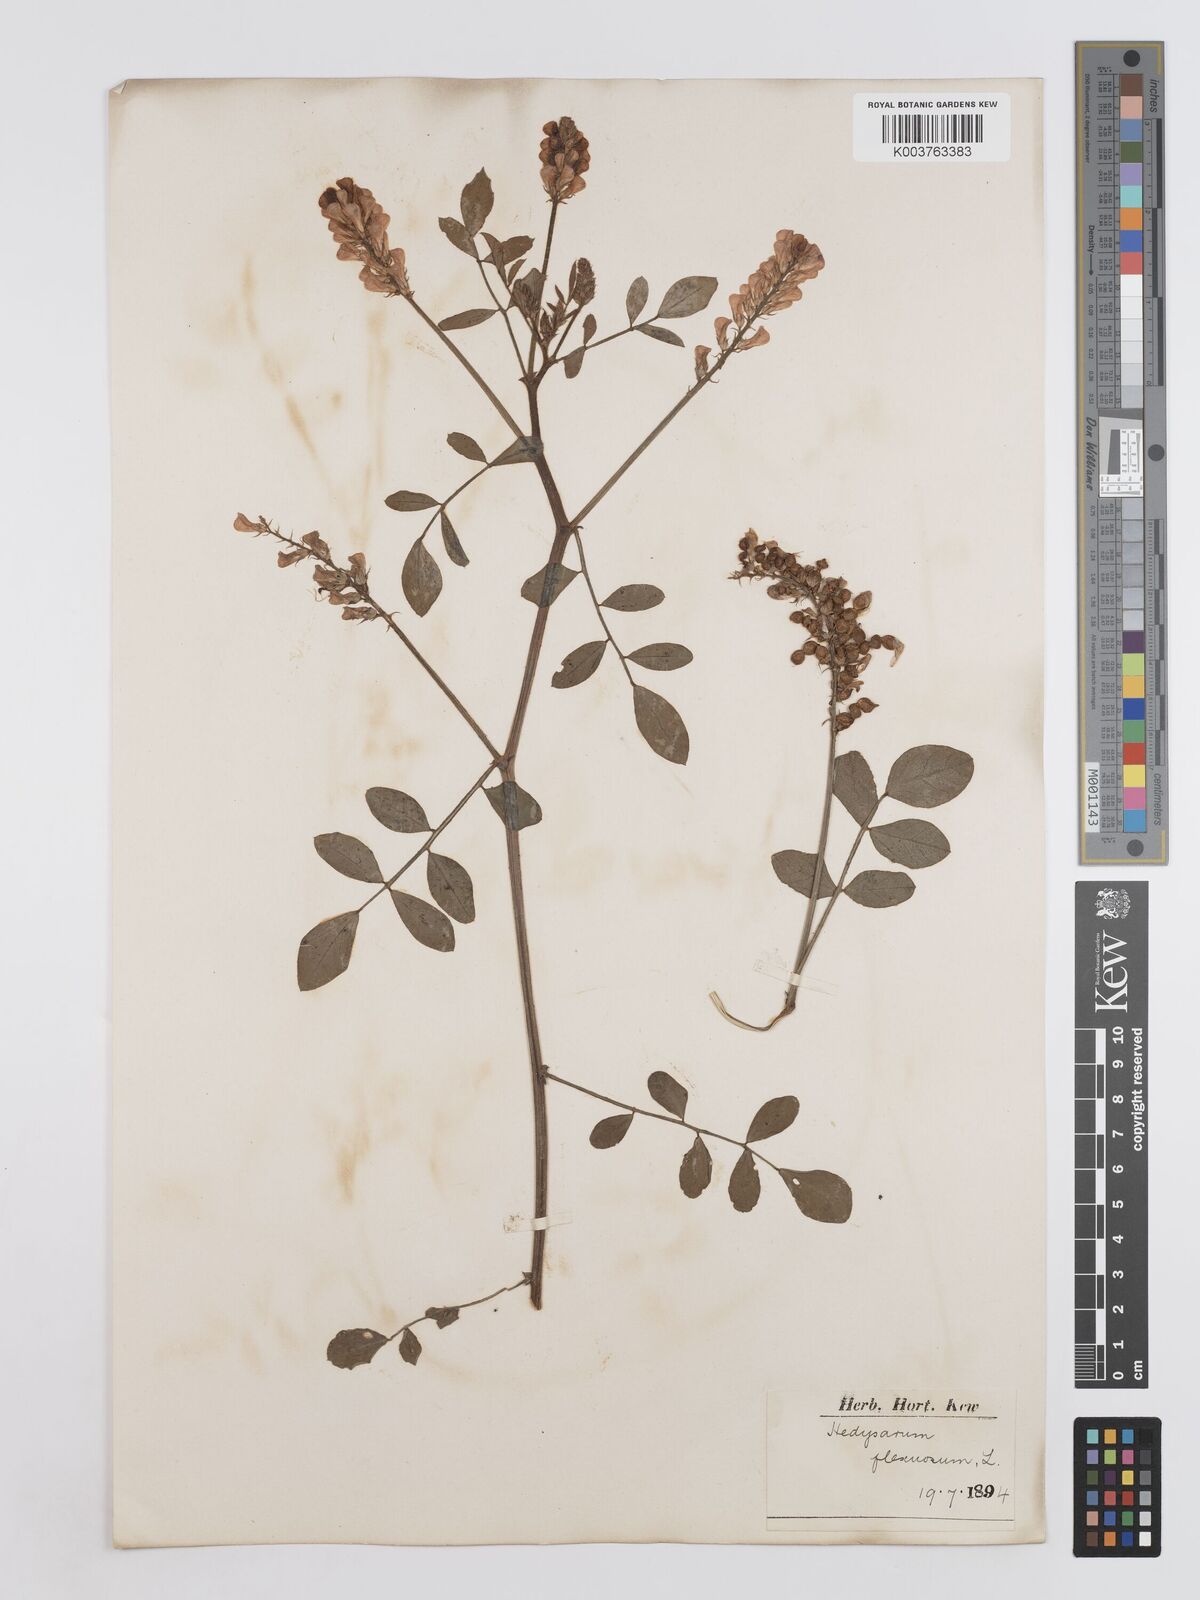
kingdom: Plantae
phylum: Tracheophyta
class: Magnoliopsida
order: Fabales
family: Fabaceae
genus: Sulla
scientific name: Sulla flexuosa
